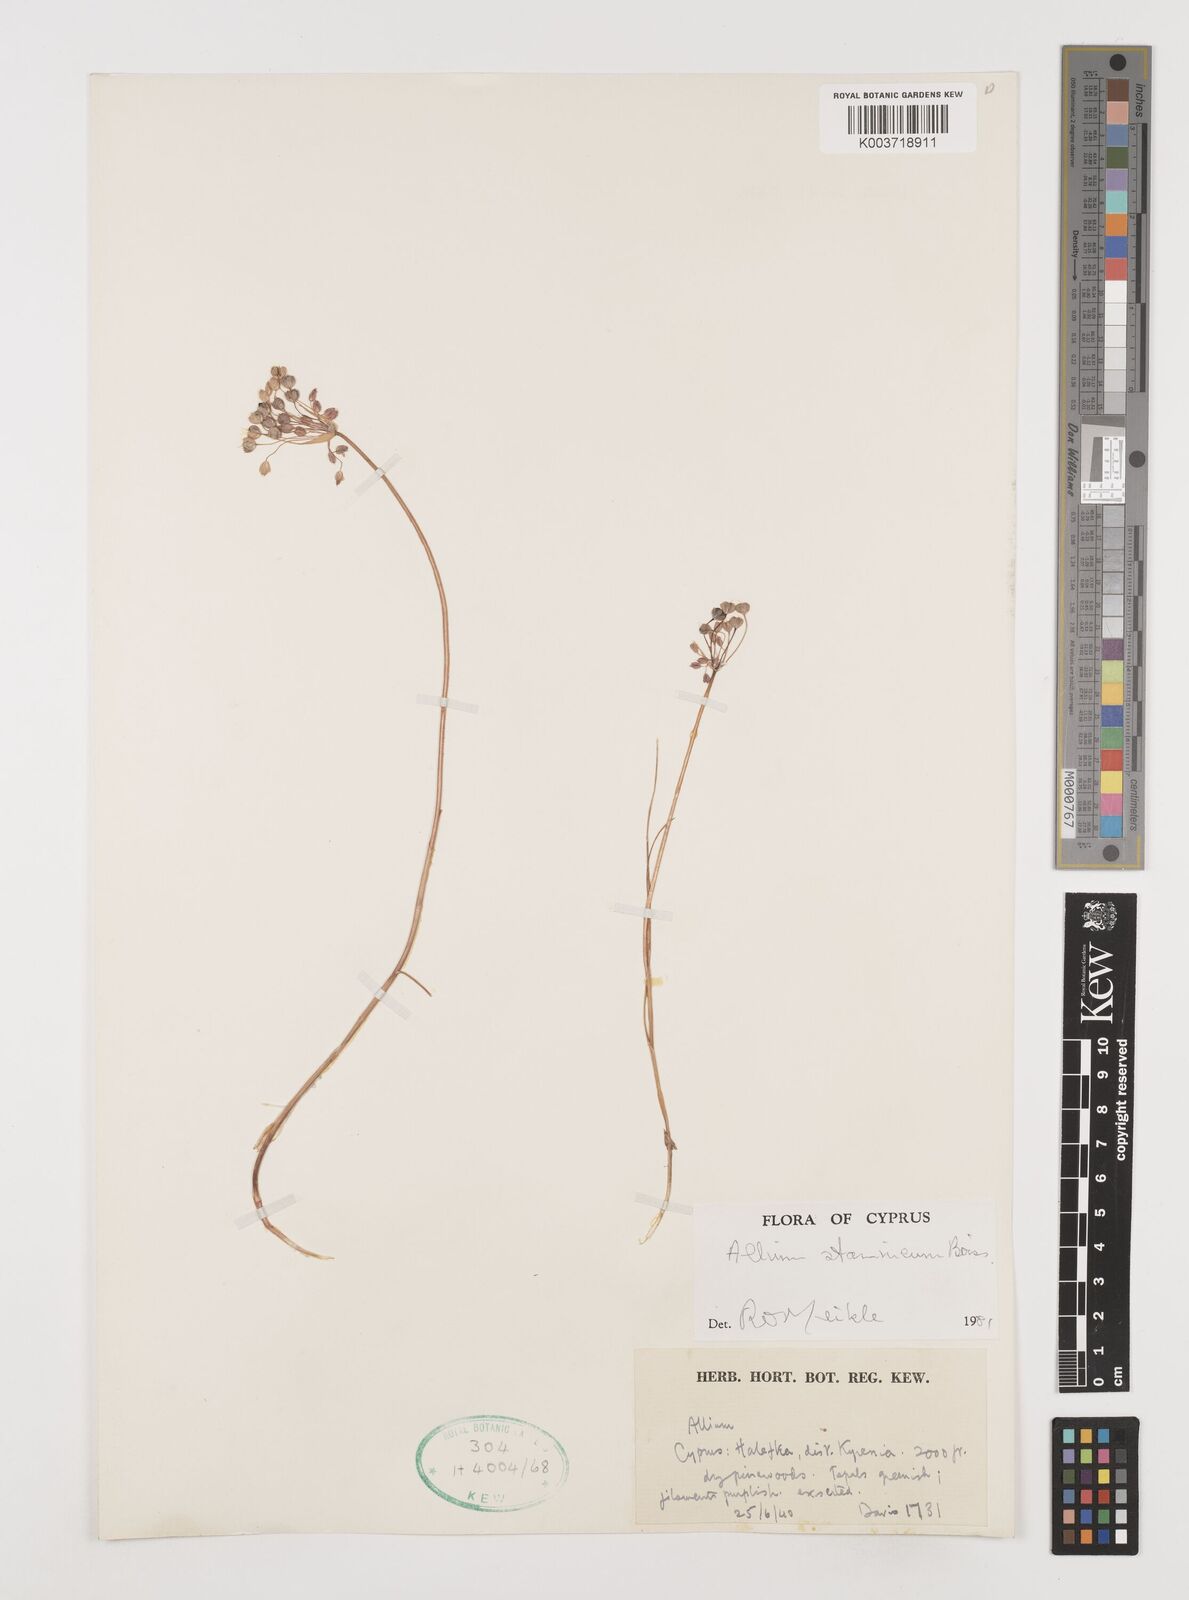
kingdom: Plantae
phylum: Tracheophyta
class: Liliopsida
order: Asparagales
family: Amaryllidaceae
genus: Allium
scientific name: Allium stamineum
